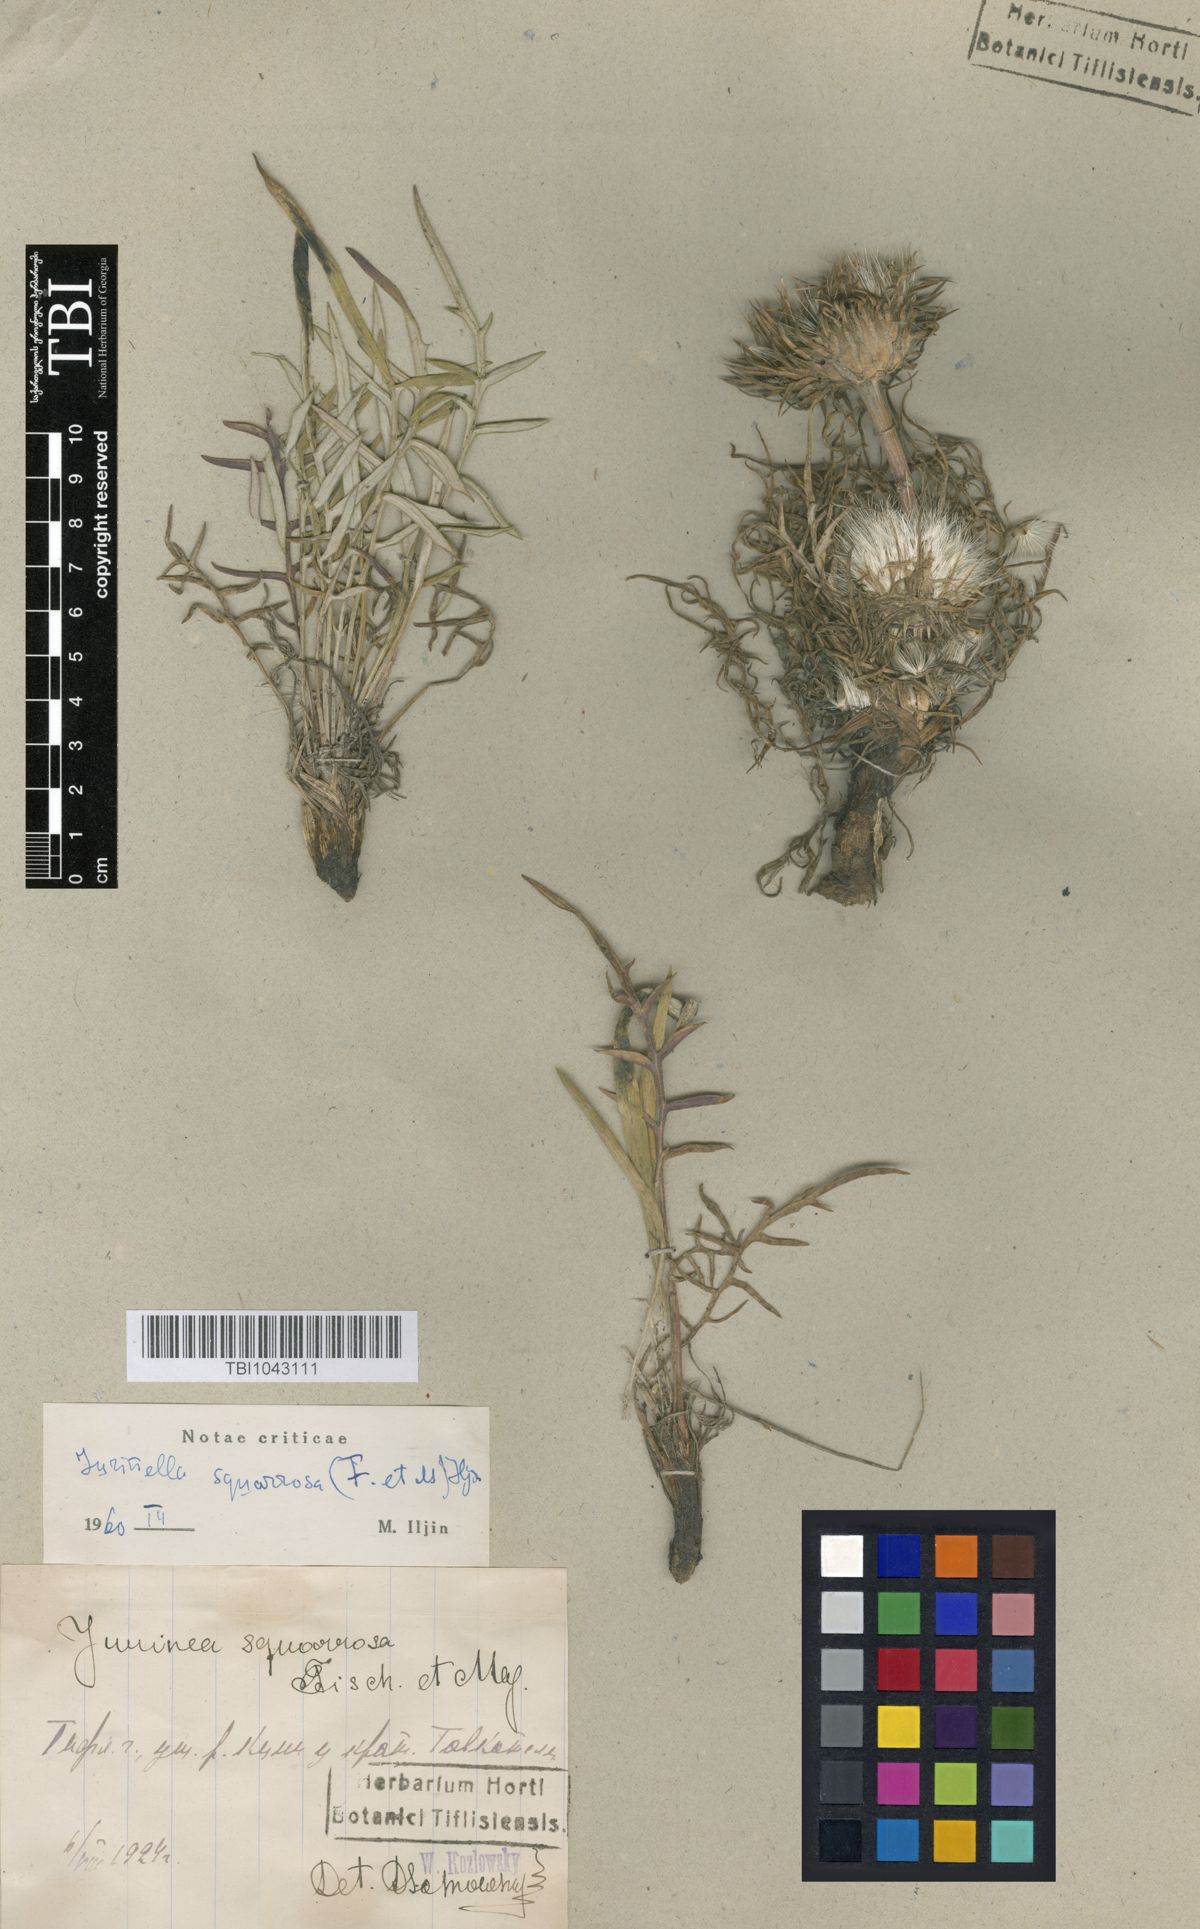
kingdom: Plantae
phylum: Tracheophyta
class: Magnoliopsida
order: Asterales
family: Asteraceae
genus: Jurinea
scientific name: Jurinea squarrosa
